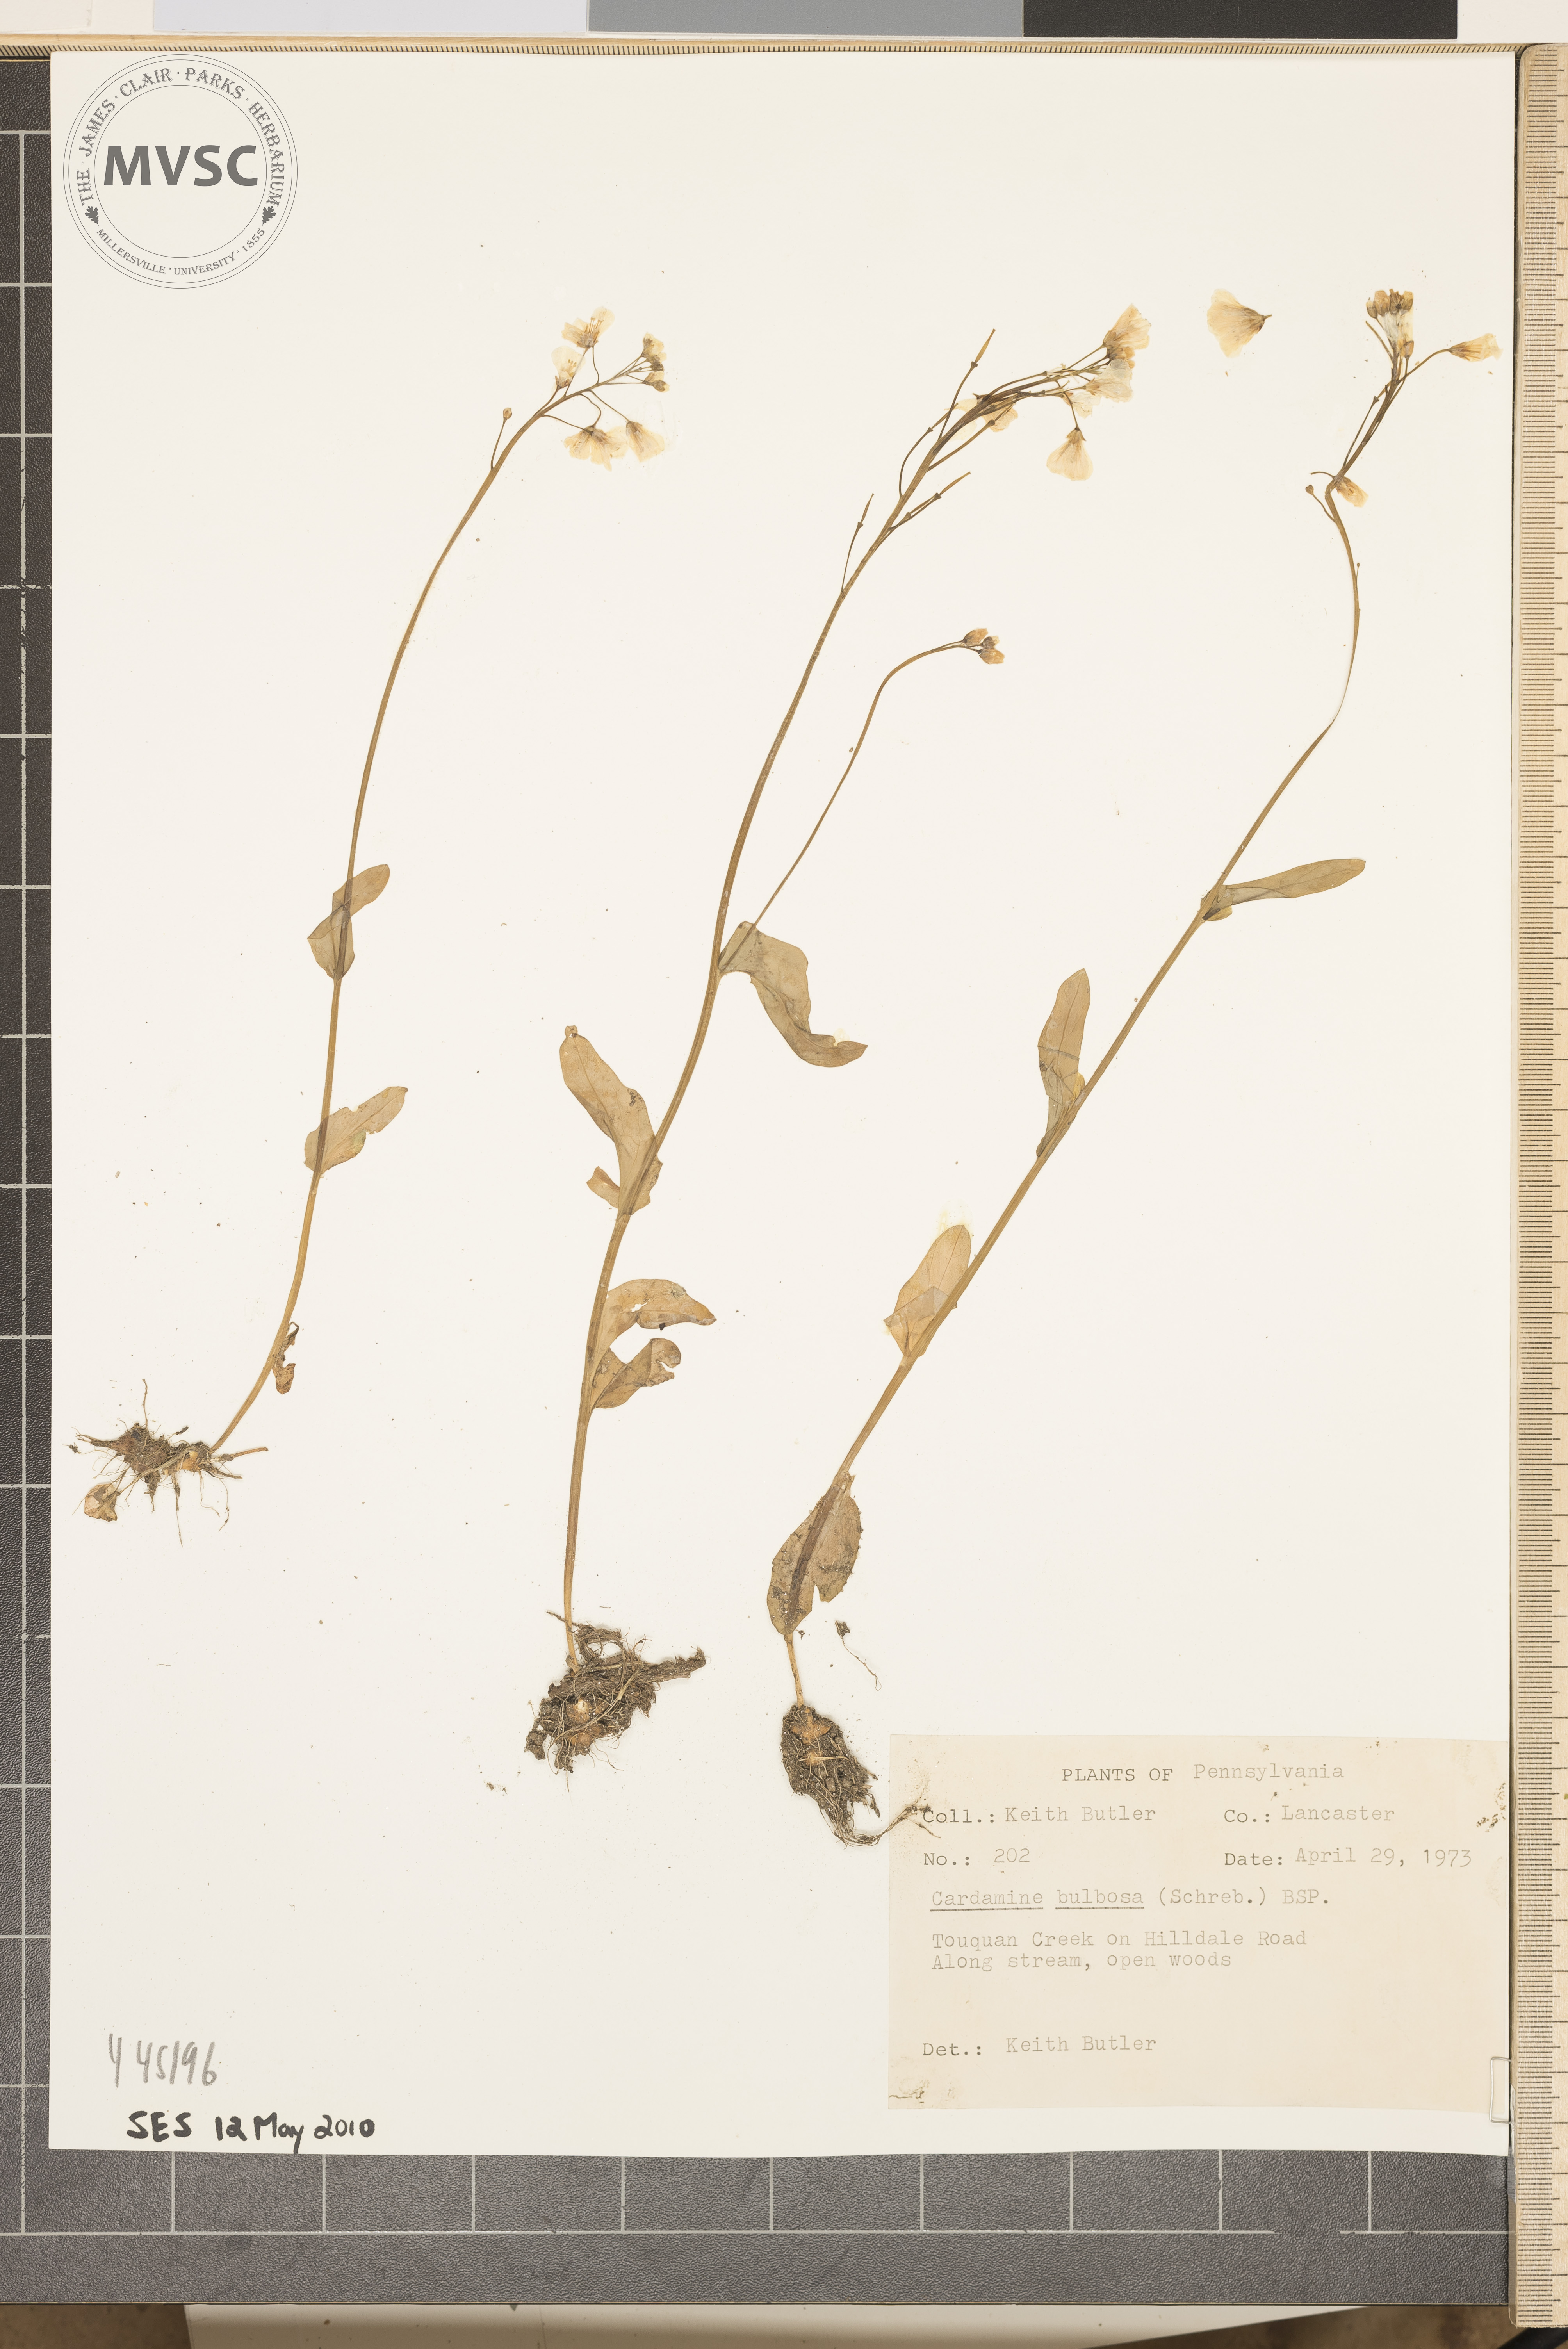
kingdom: Plantae
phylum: Tracheophyta
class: Magnoliopsida
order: Brassicales
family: Brassicaceae
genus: Cardamine
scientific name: Cardamine bulbosa
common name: Spring cress
